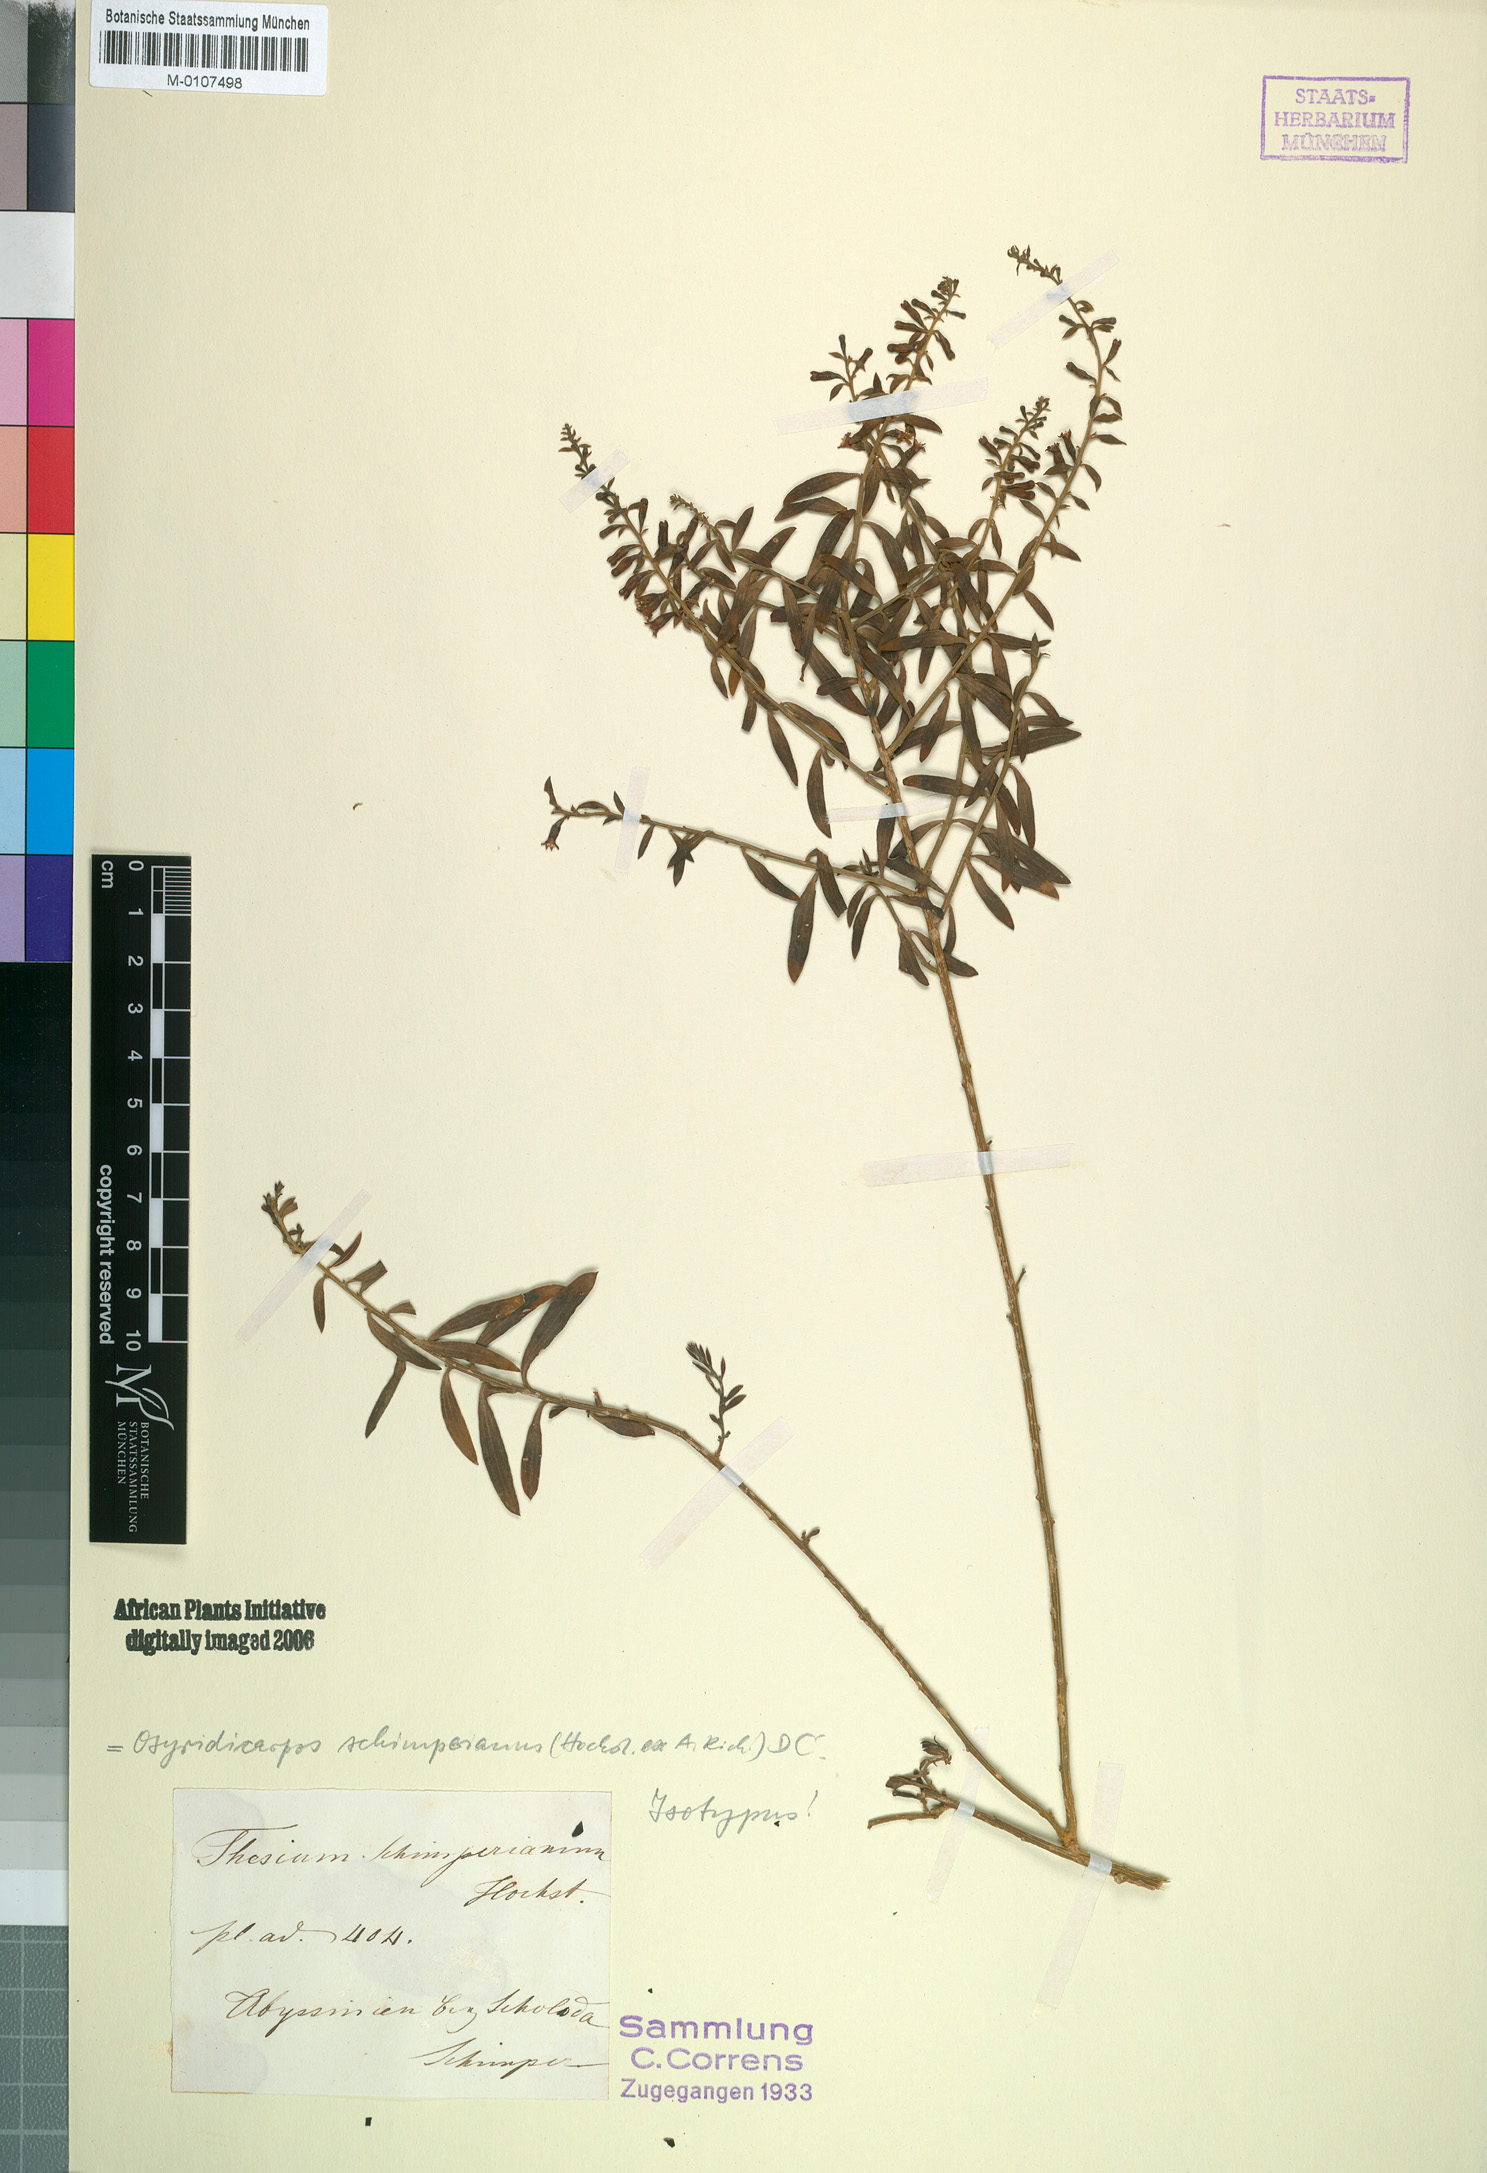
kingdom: Plantae
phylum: Tracheophyta
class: Magnoliopsida
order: Santalales
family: Thesiaceae
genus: Osyridicarpos
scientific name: Osyridicarpos schimperianus
